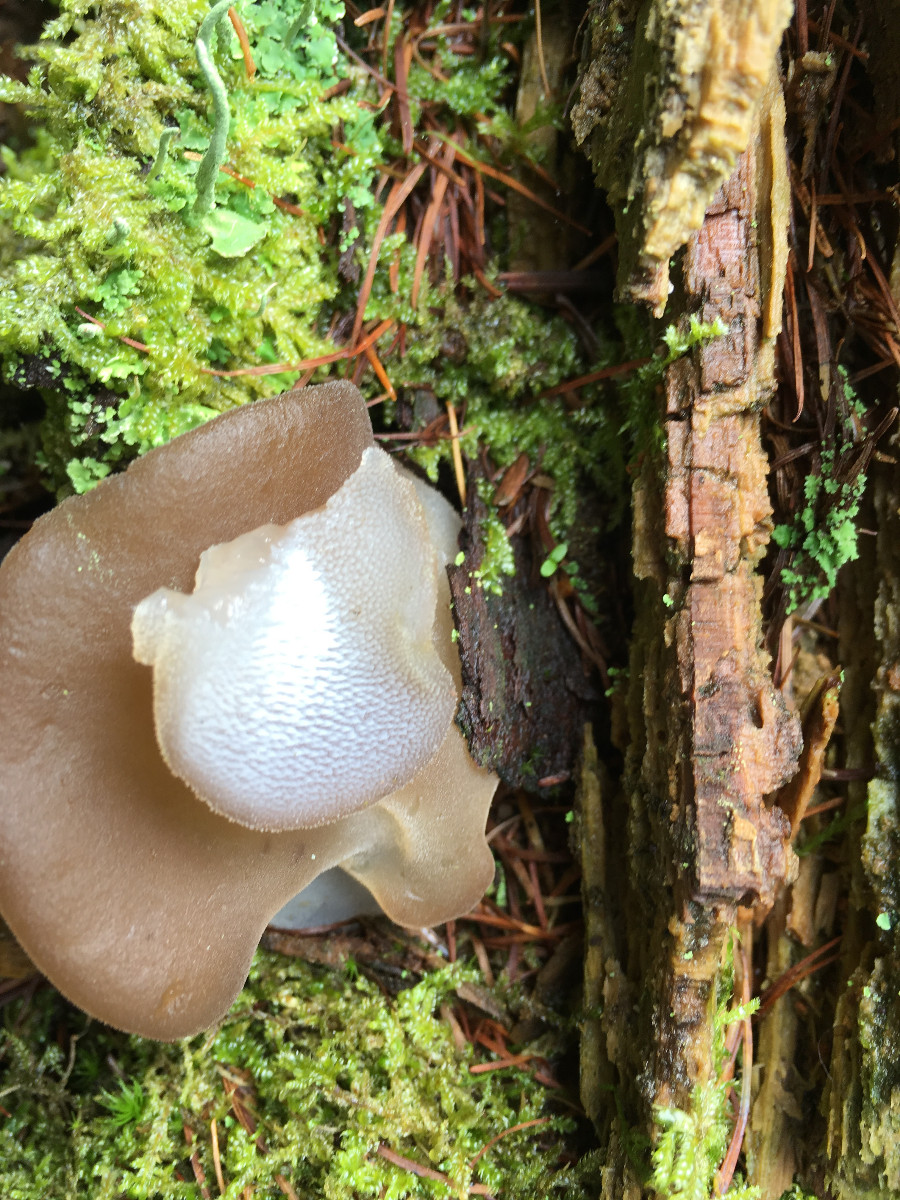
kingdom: Fungi
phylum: Basidiomycota
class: Tremellomycetes
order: Tremellales
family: Exidiaceae
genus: Pseudohydnum
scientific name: Pseudohydnum
